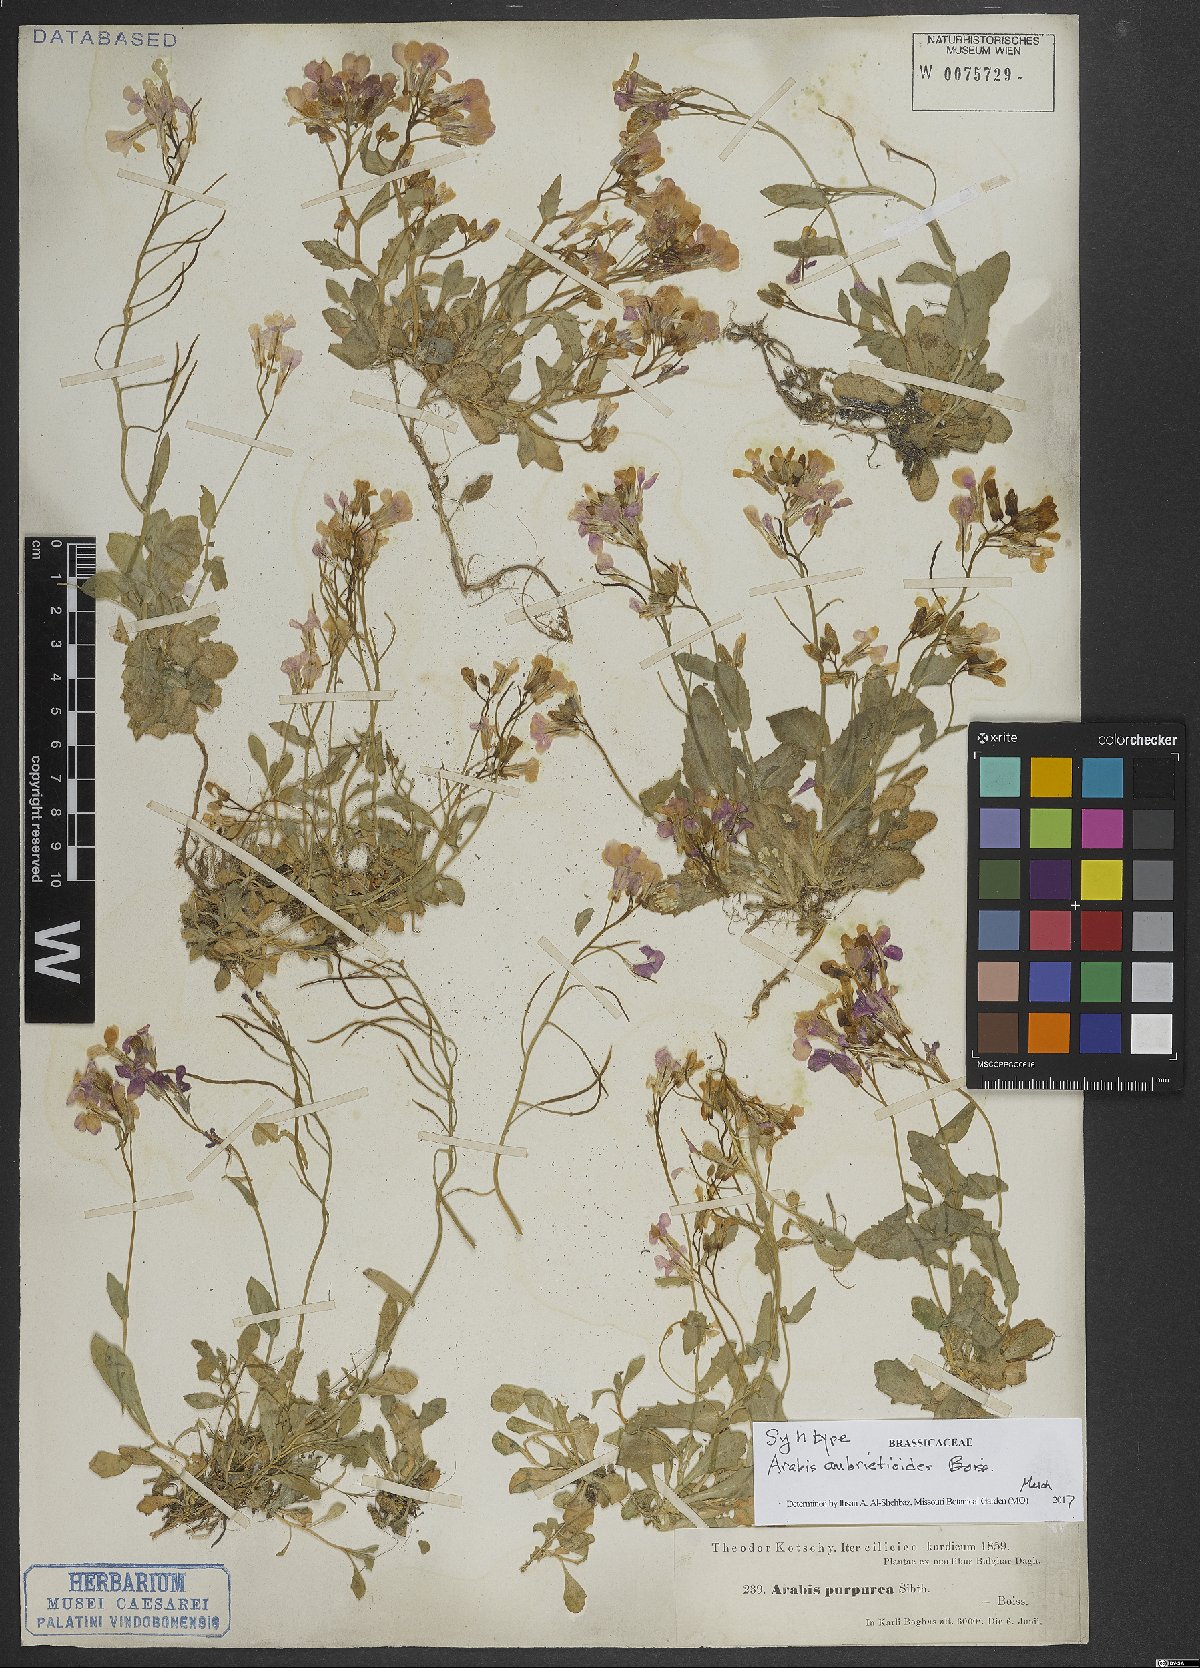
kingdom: Plantae
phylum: Tracheophyta
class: Magnoliopsida
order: Brassicales
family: Brassicaceae
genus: Arabis
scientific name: Arabis aubrietioides
